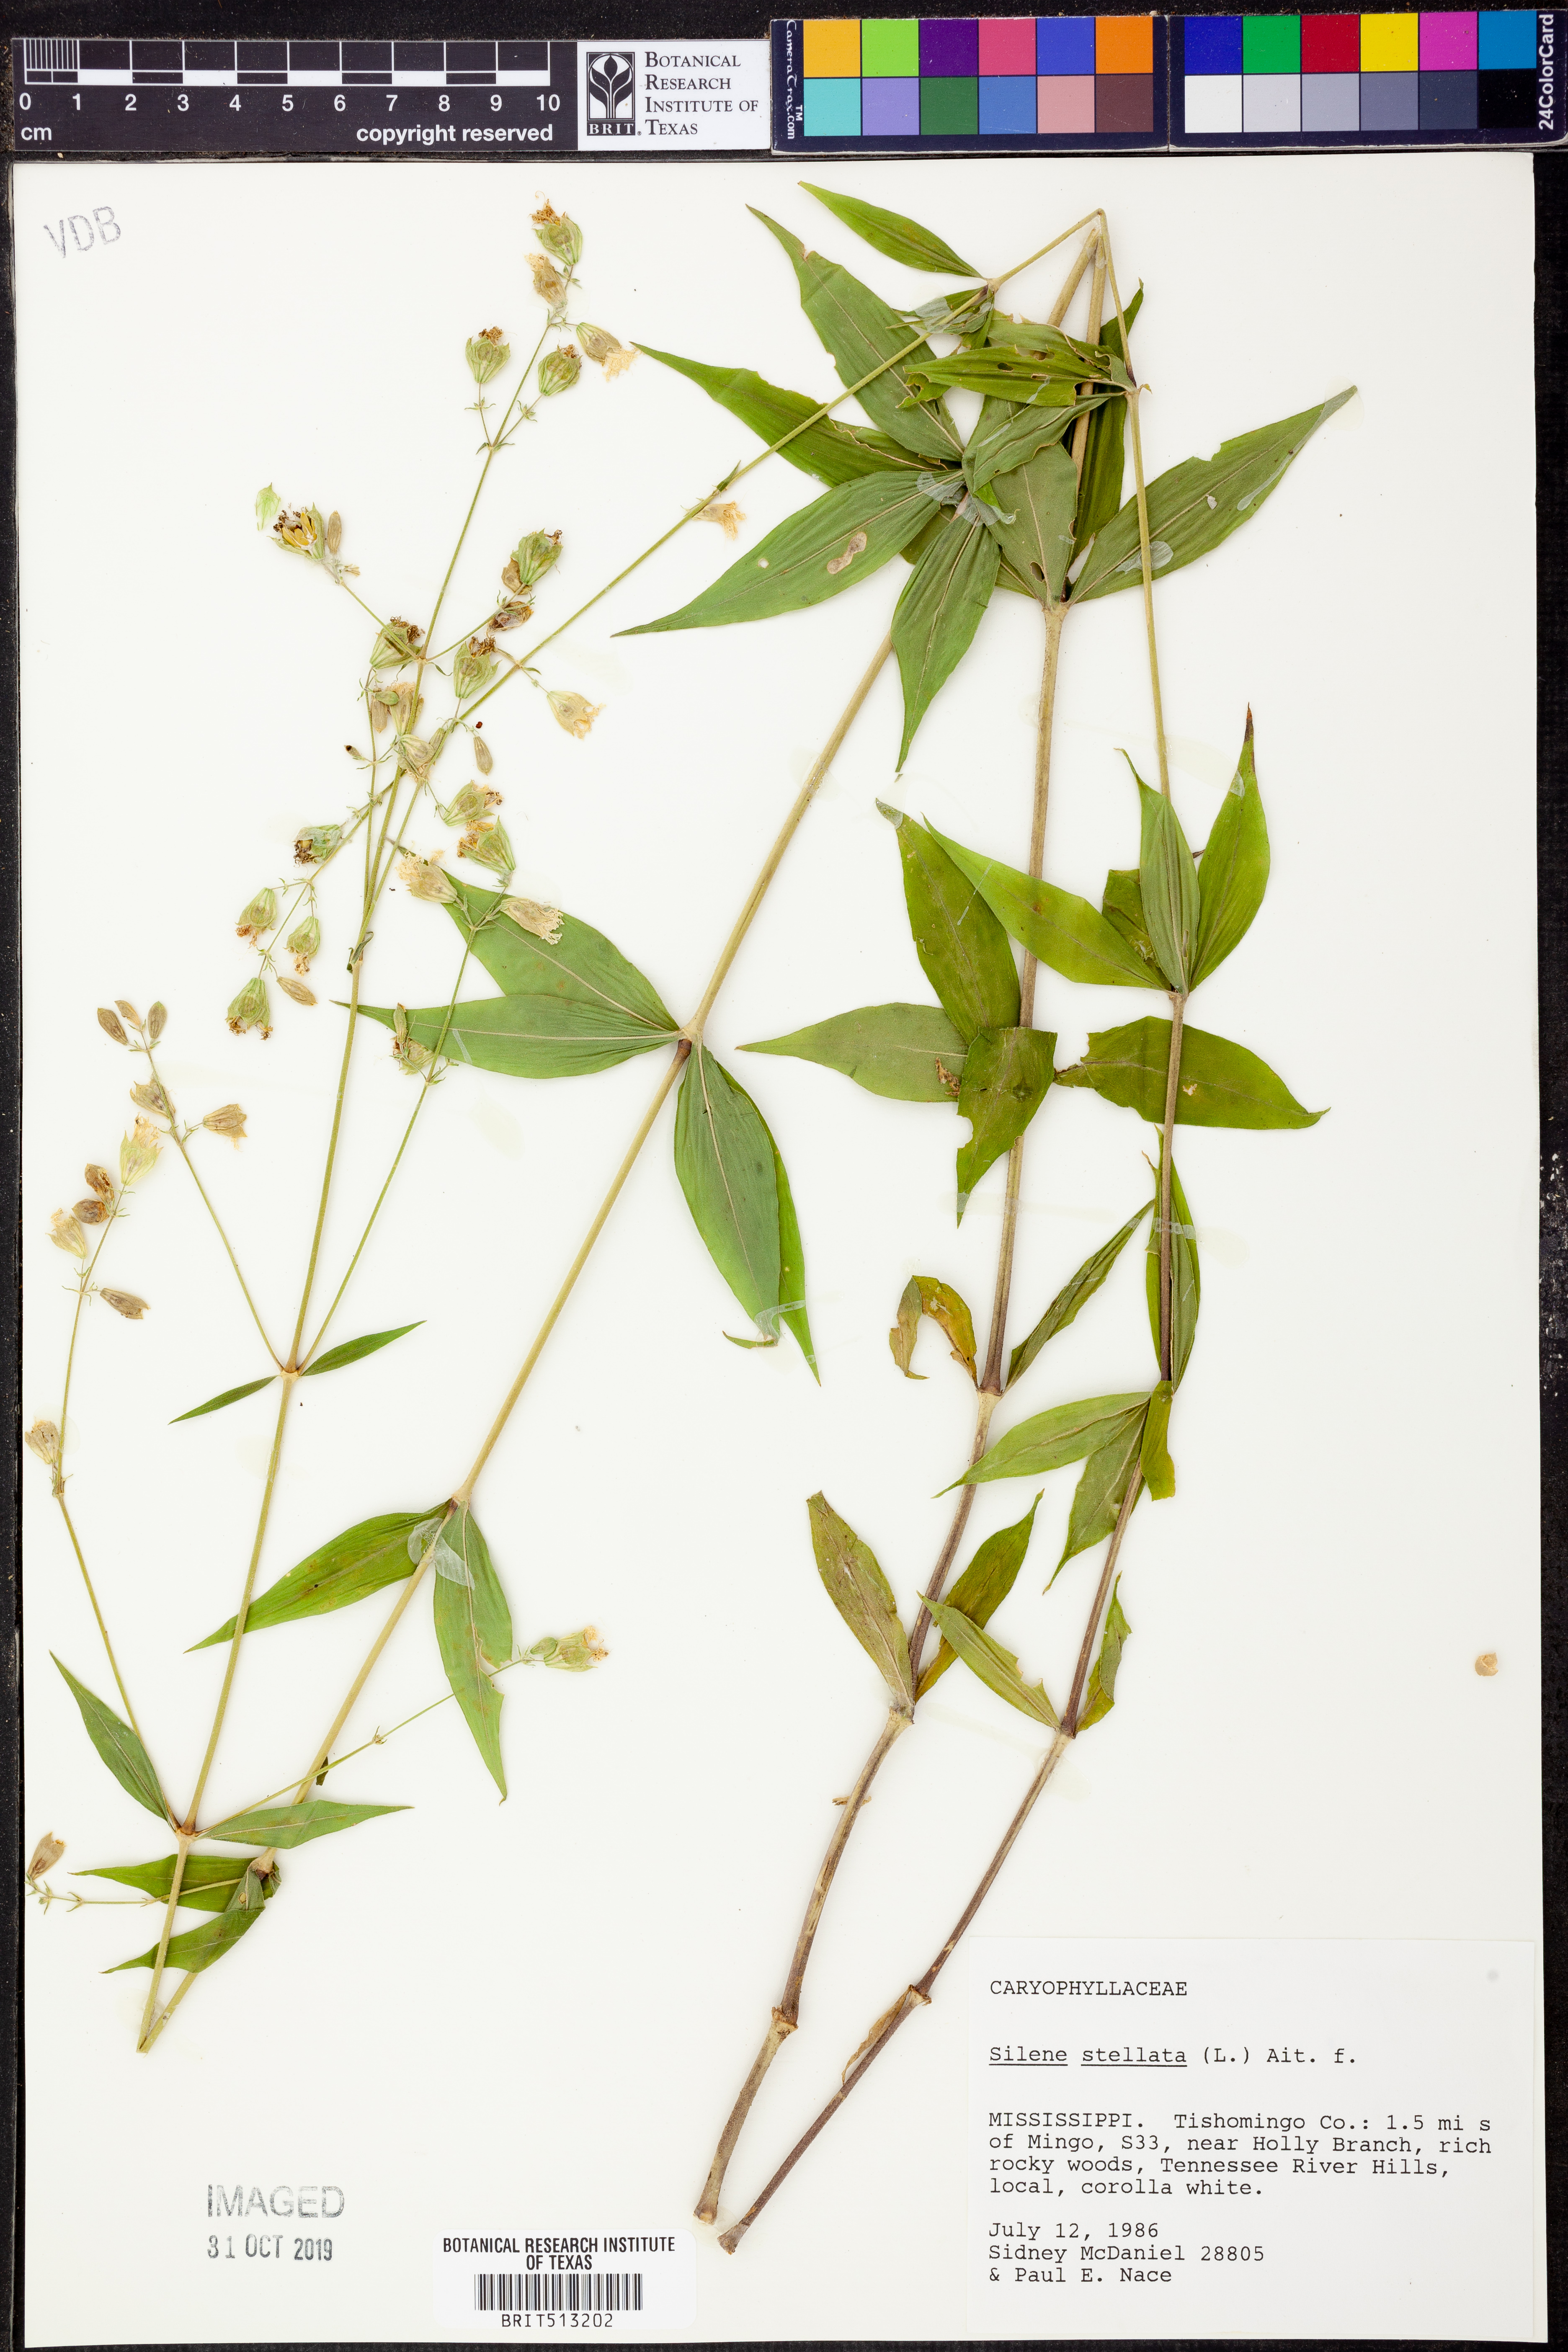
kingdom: Plantae
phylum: Tracheophyta
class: Magnoliopsida
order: Caryophyllales
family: Caryophyllaceae
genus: Silene
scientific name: Silene stellata
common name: Starry campion
